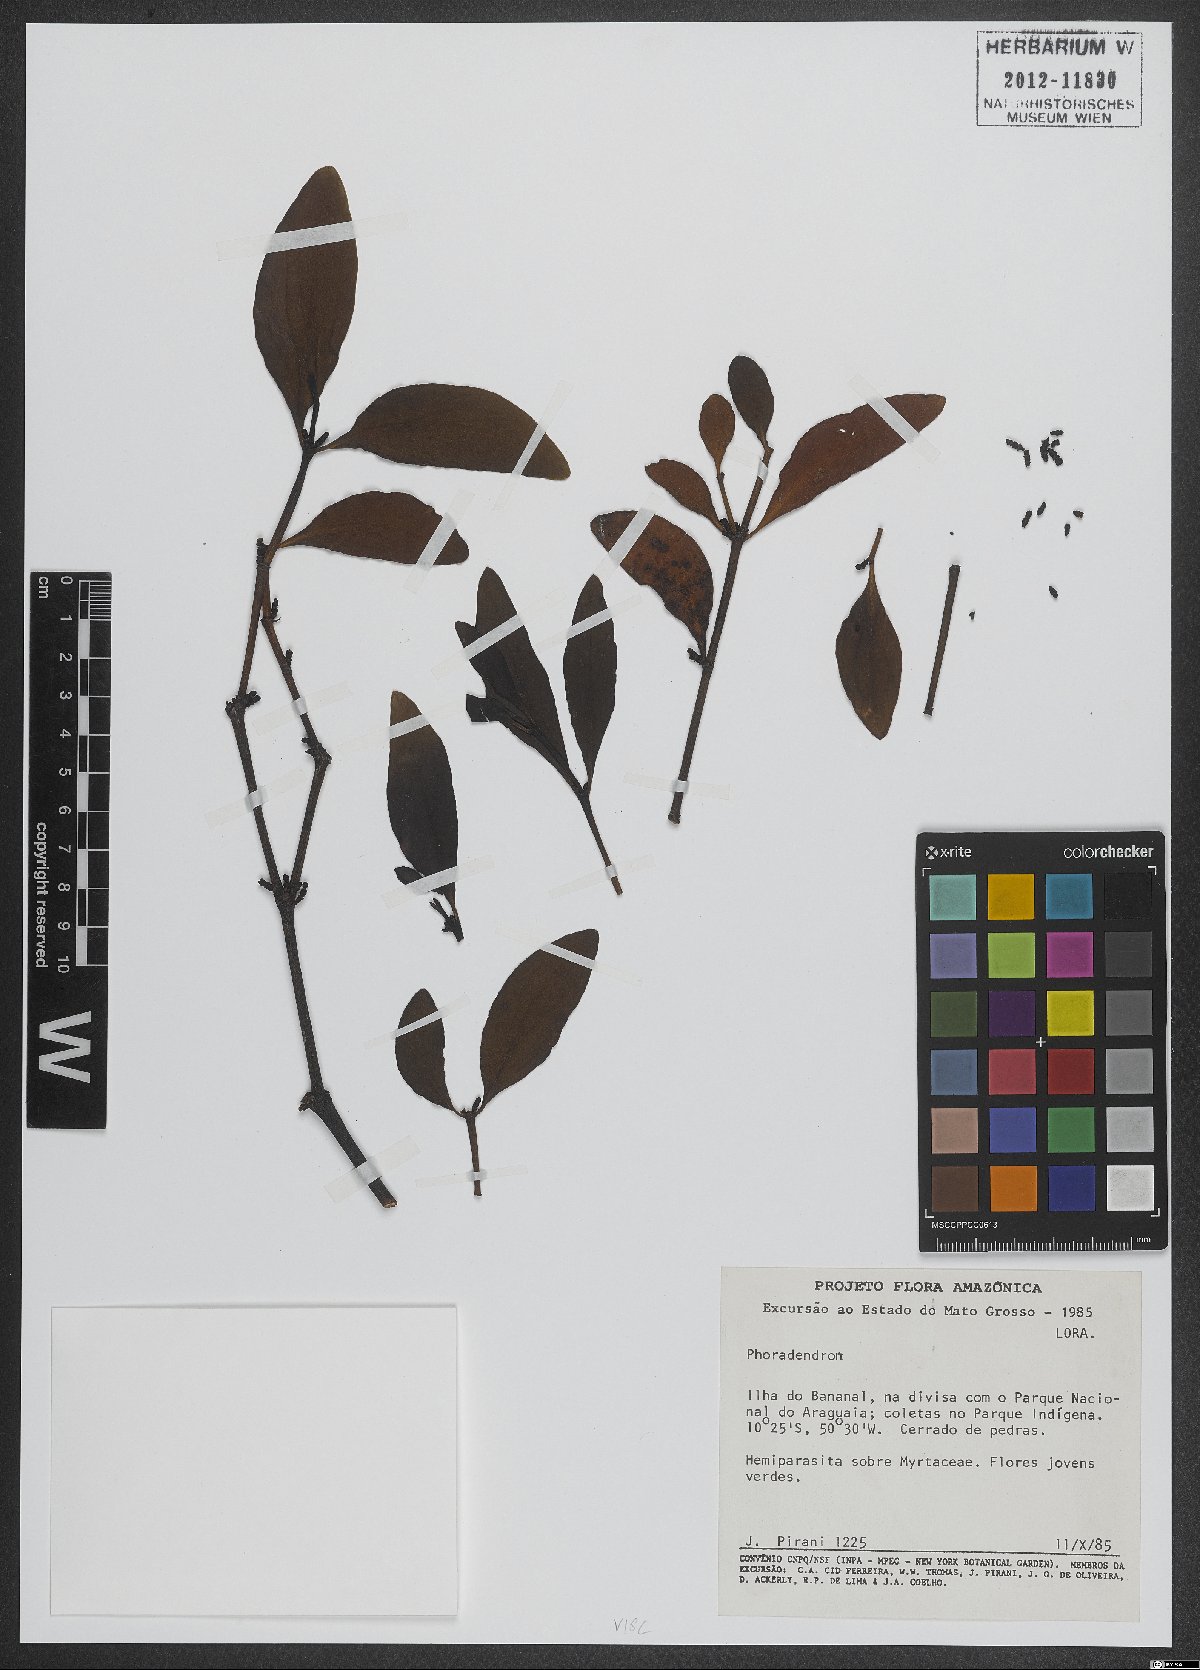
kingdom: Plantae
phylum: Tracheophyta
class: Magnoliopsida
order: Santalales
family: Viscaceae
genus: Phoradendron
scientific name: Phoradendron
